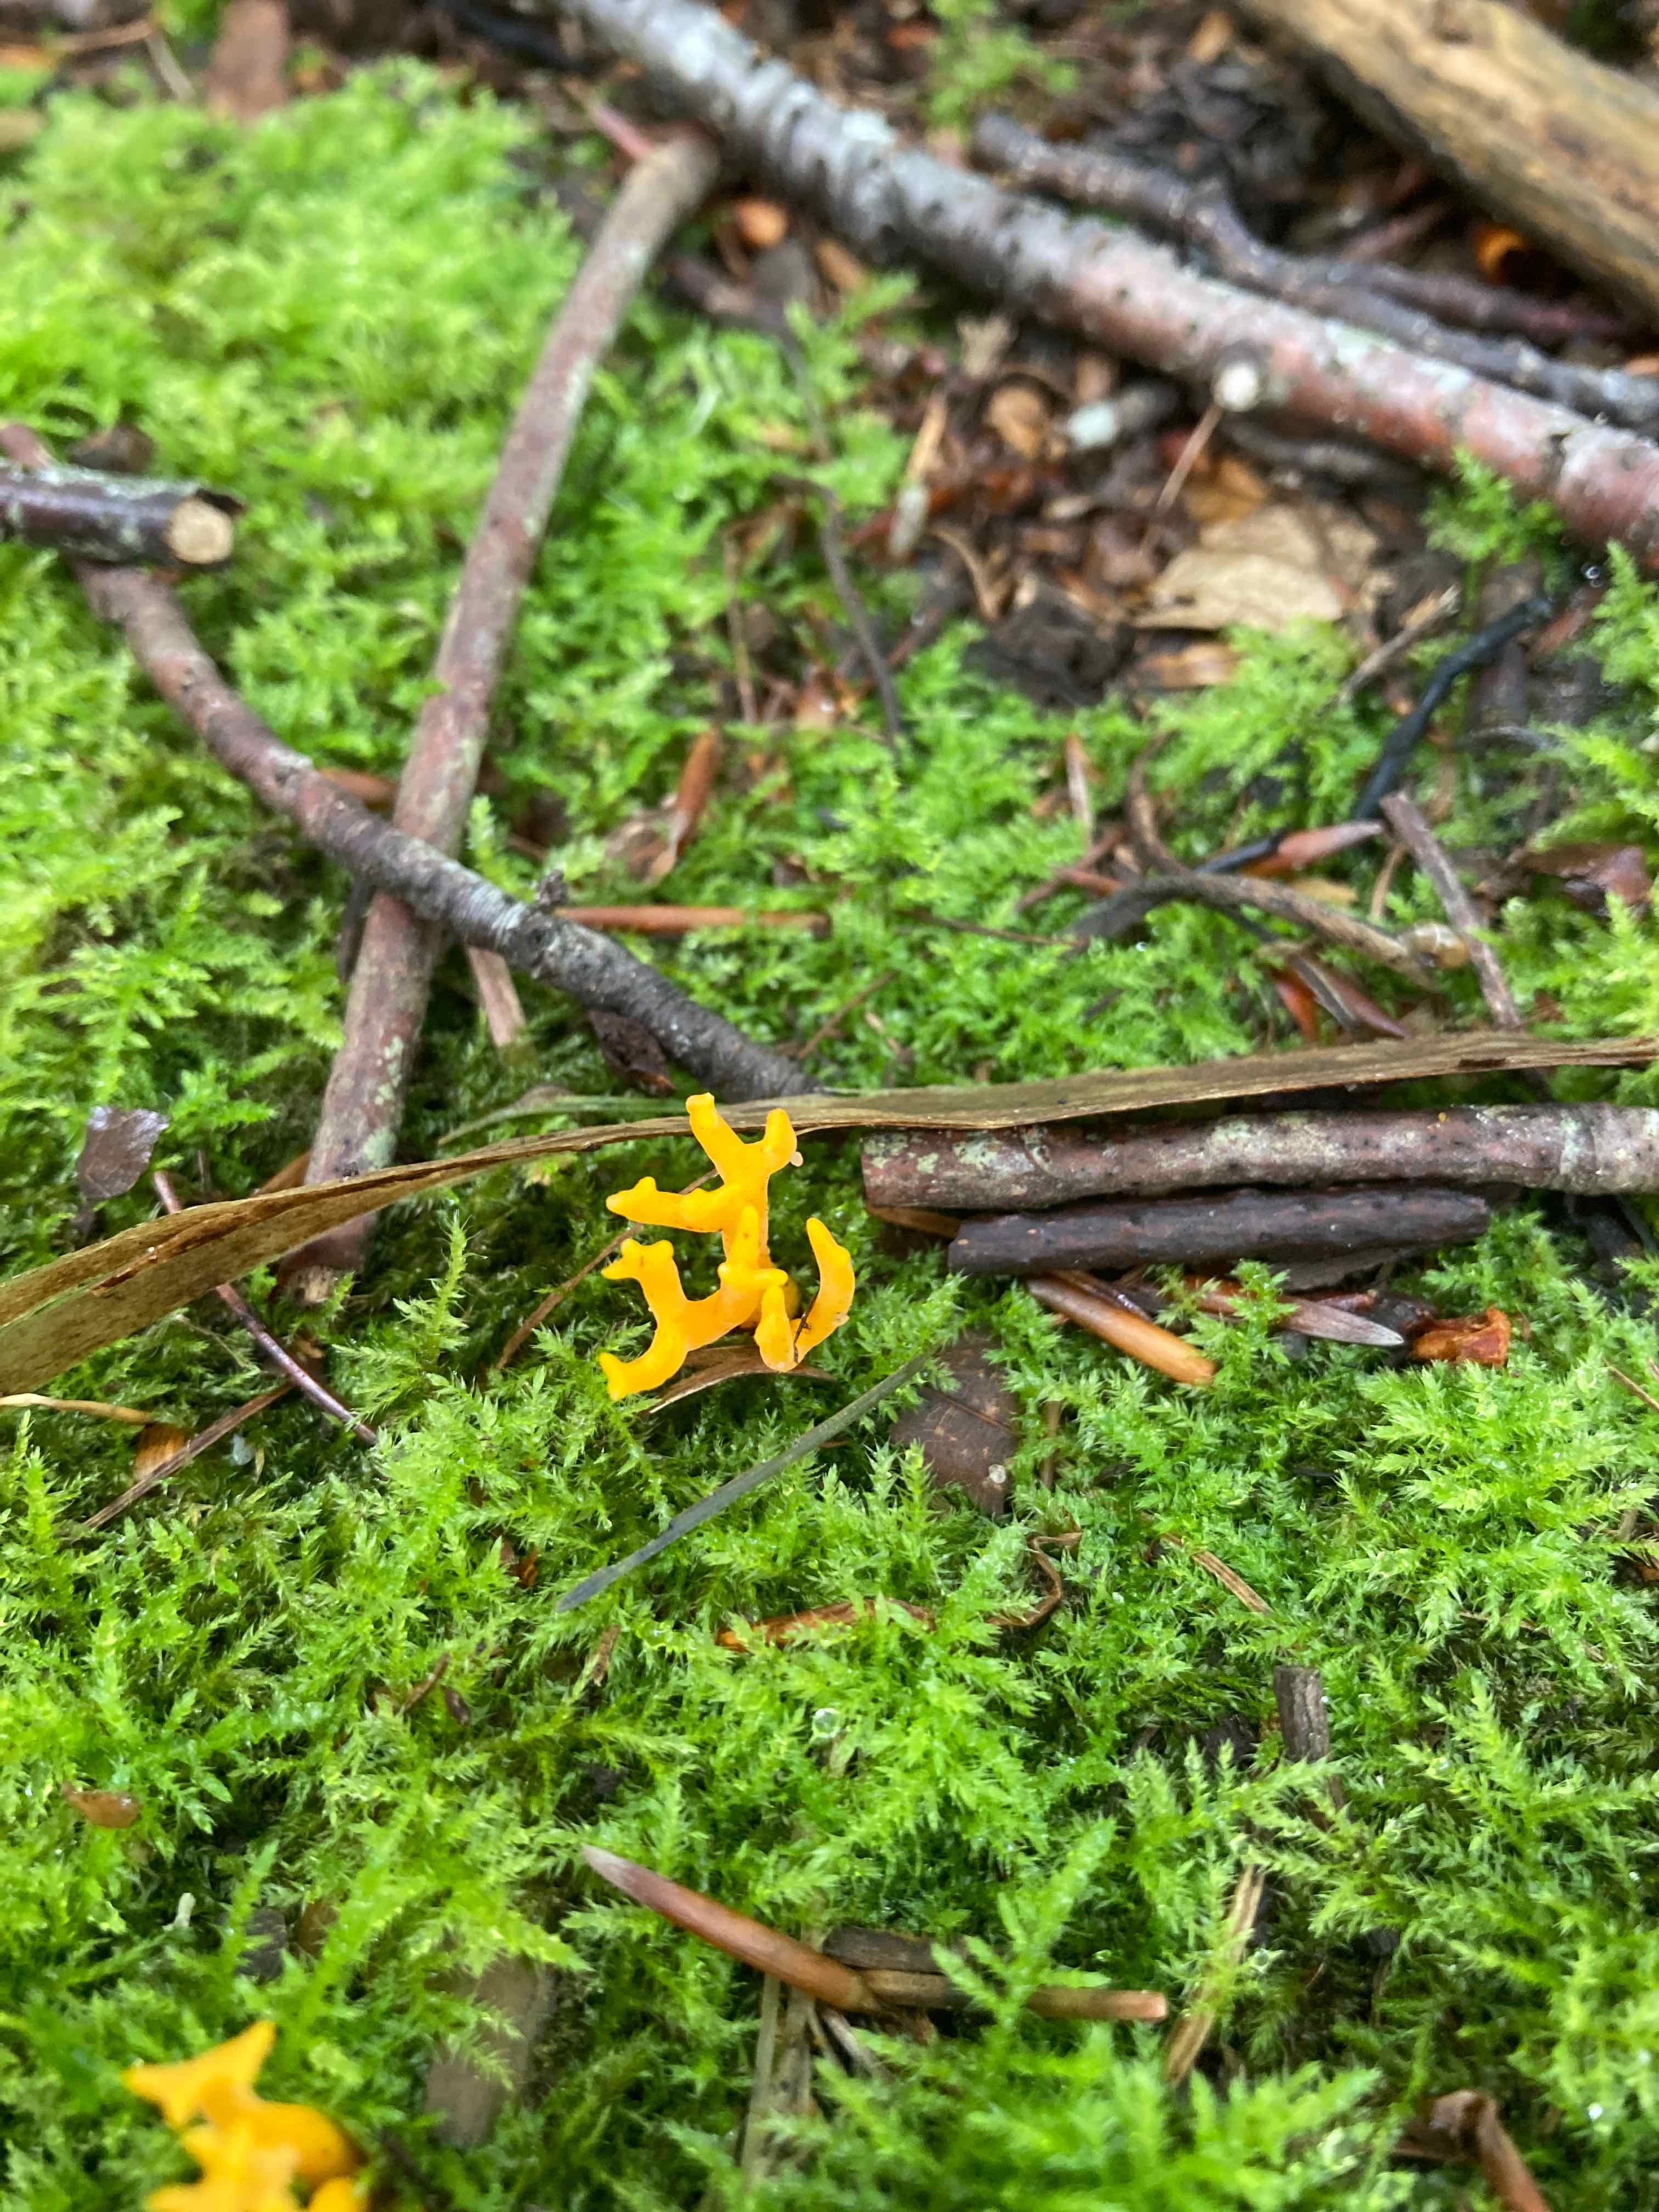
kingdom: Fungi
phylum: Basidiomycota
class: Dacrymycetes
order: Dacrymycetales
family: Dacrymycetaceae
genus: Calocera
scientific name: Calocera viscosa
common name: almindelig guldgaffel
